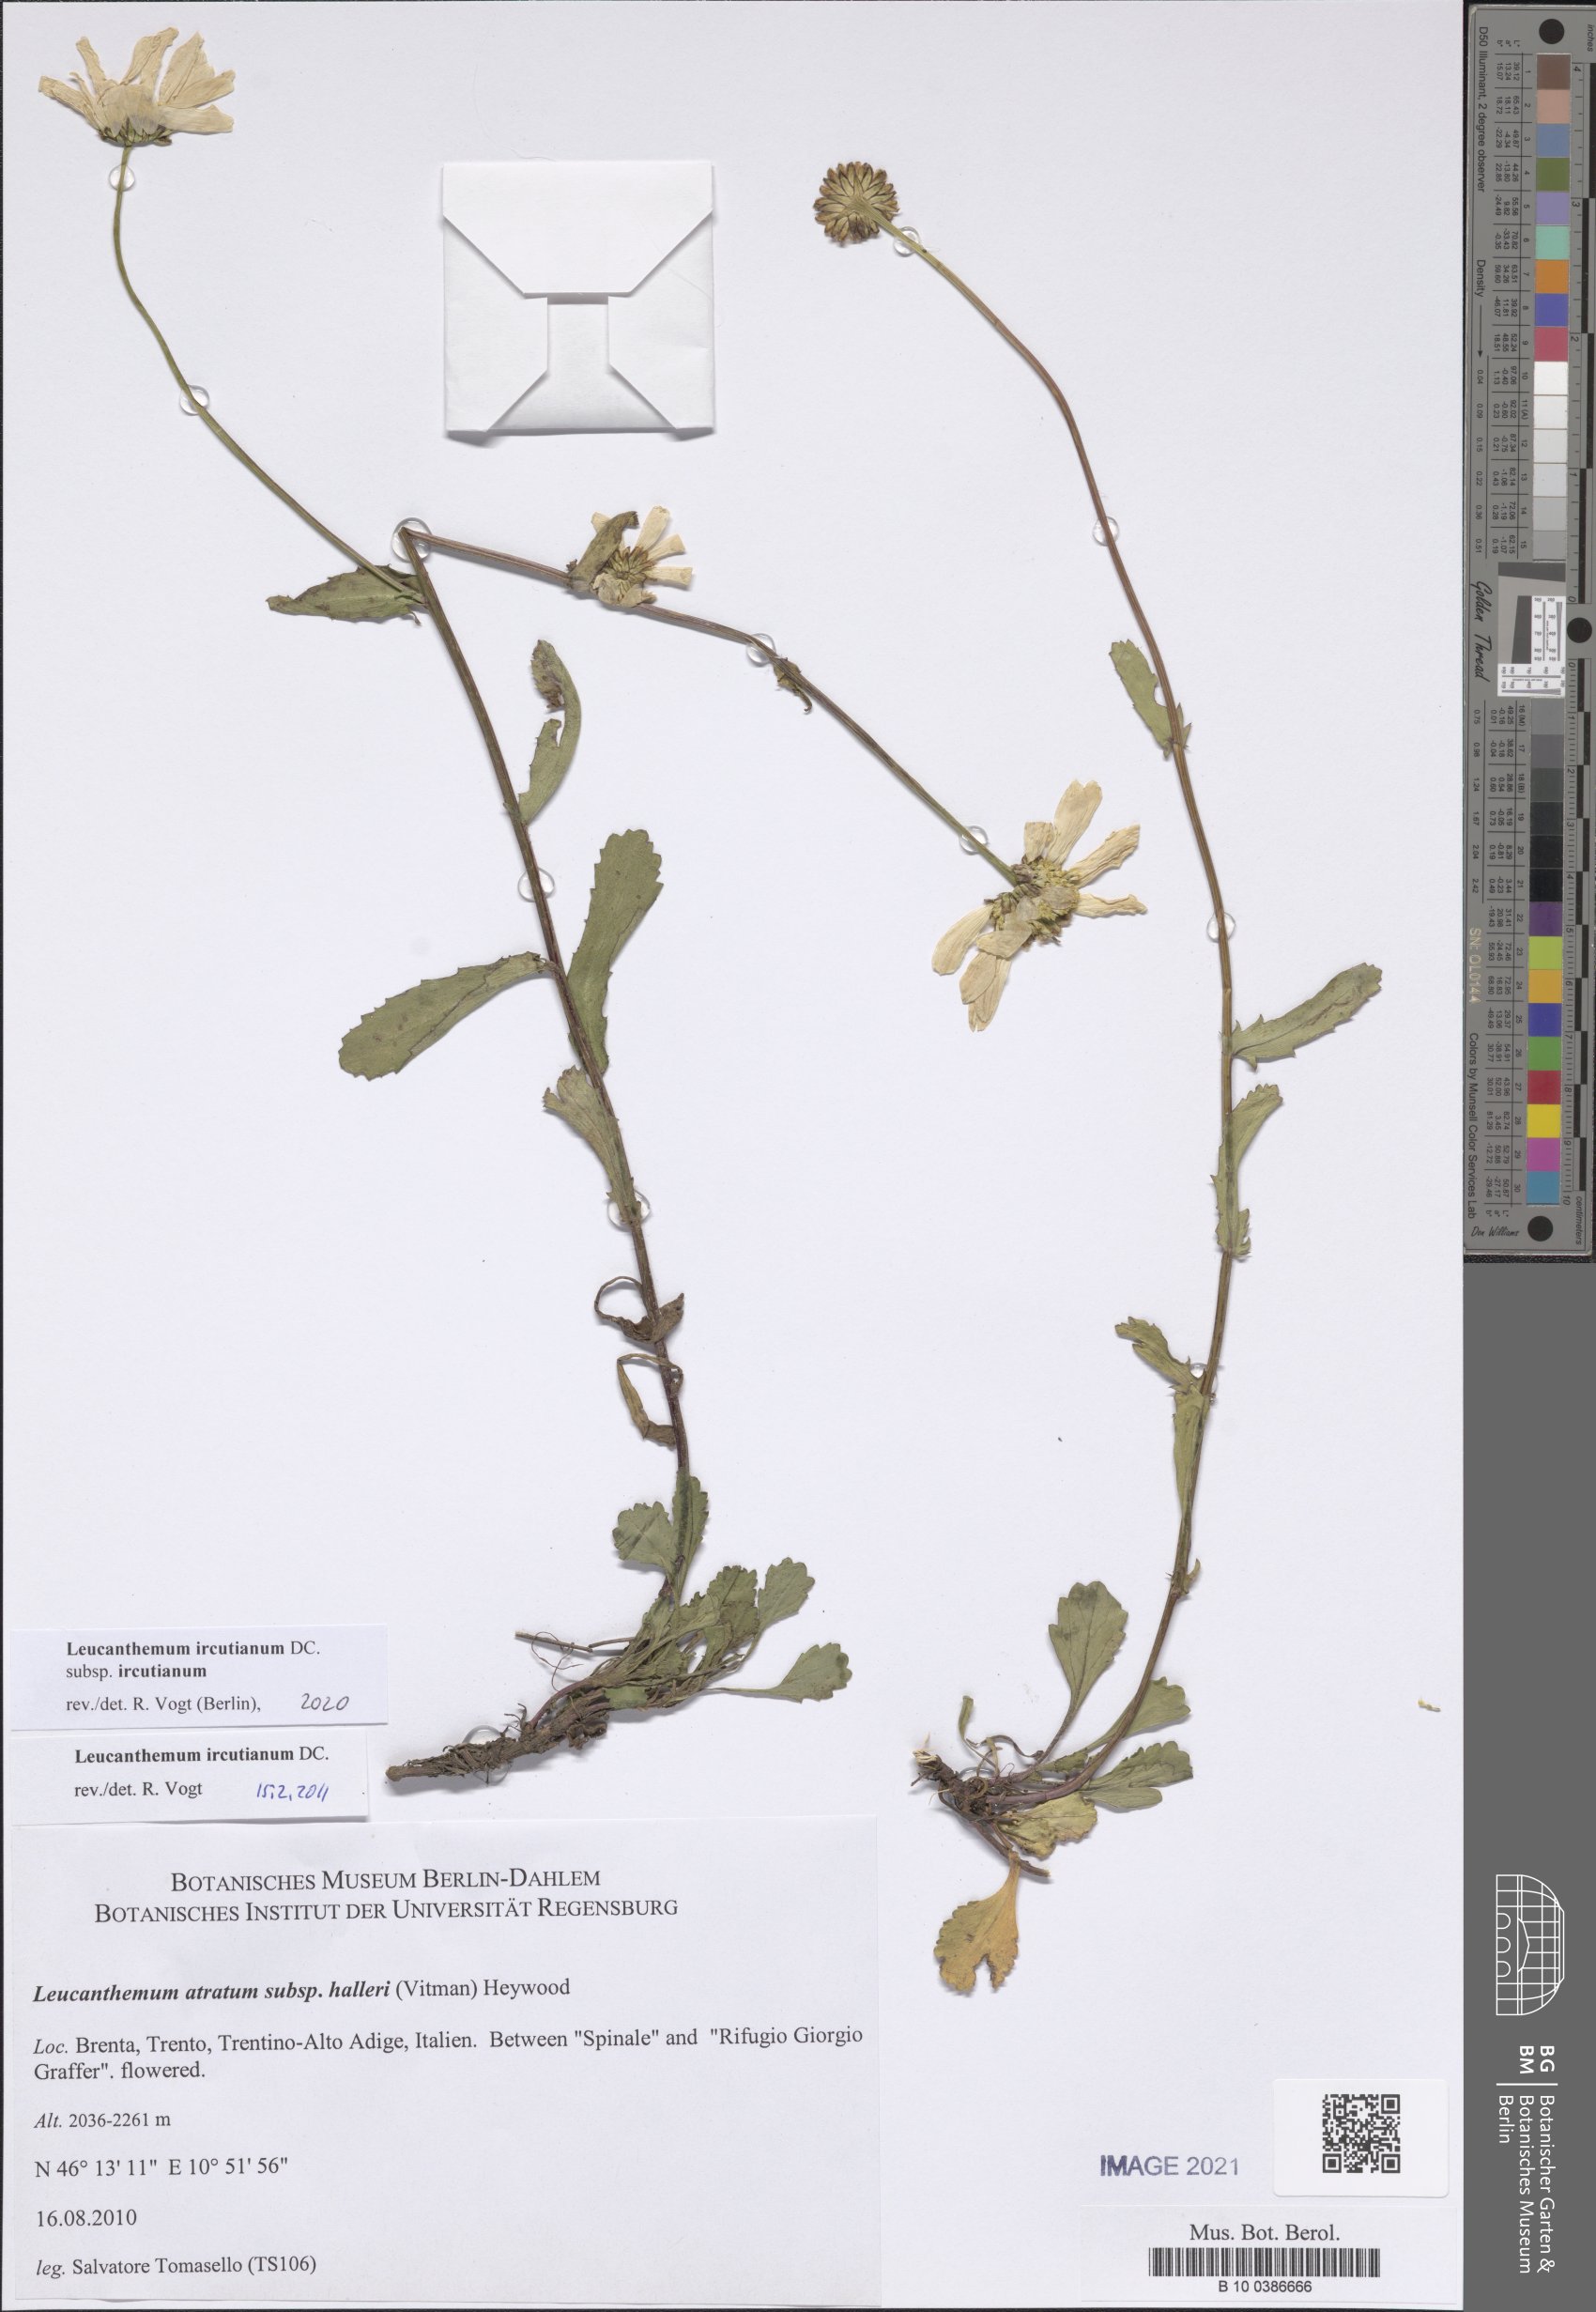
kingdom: Plantae
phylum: Tracheophyta
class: Magnoliopsida
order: Asterales
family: Asteraceae
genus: Leucanthemum
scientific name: Leucanthemum ircutianum
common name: Daisy
